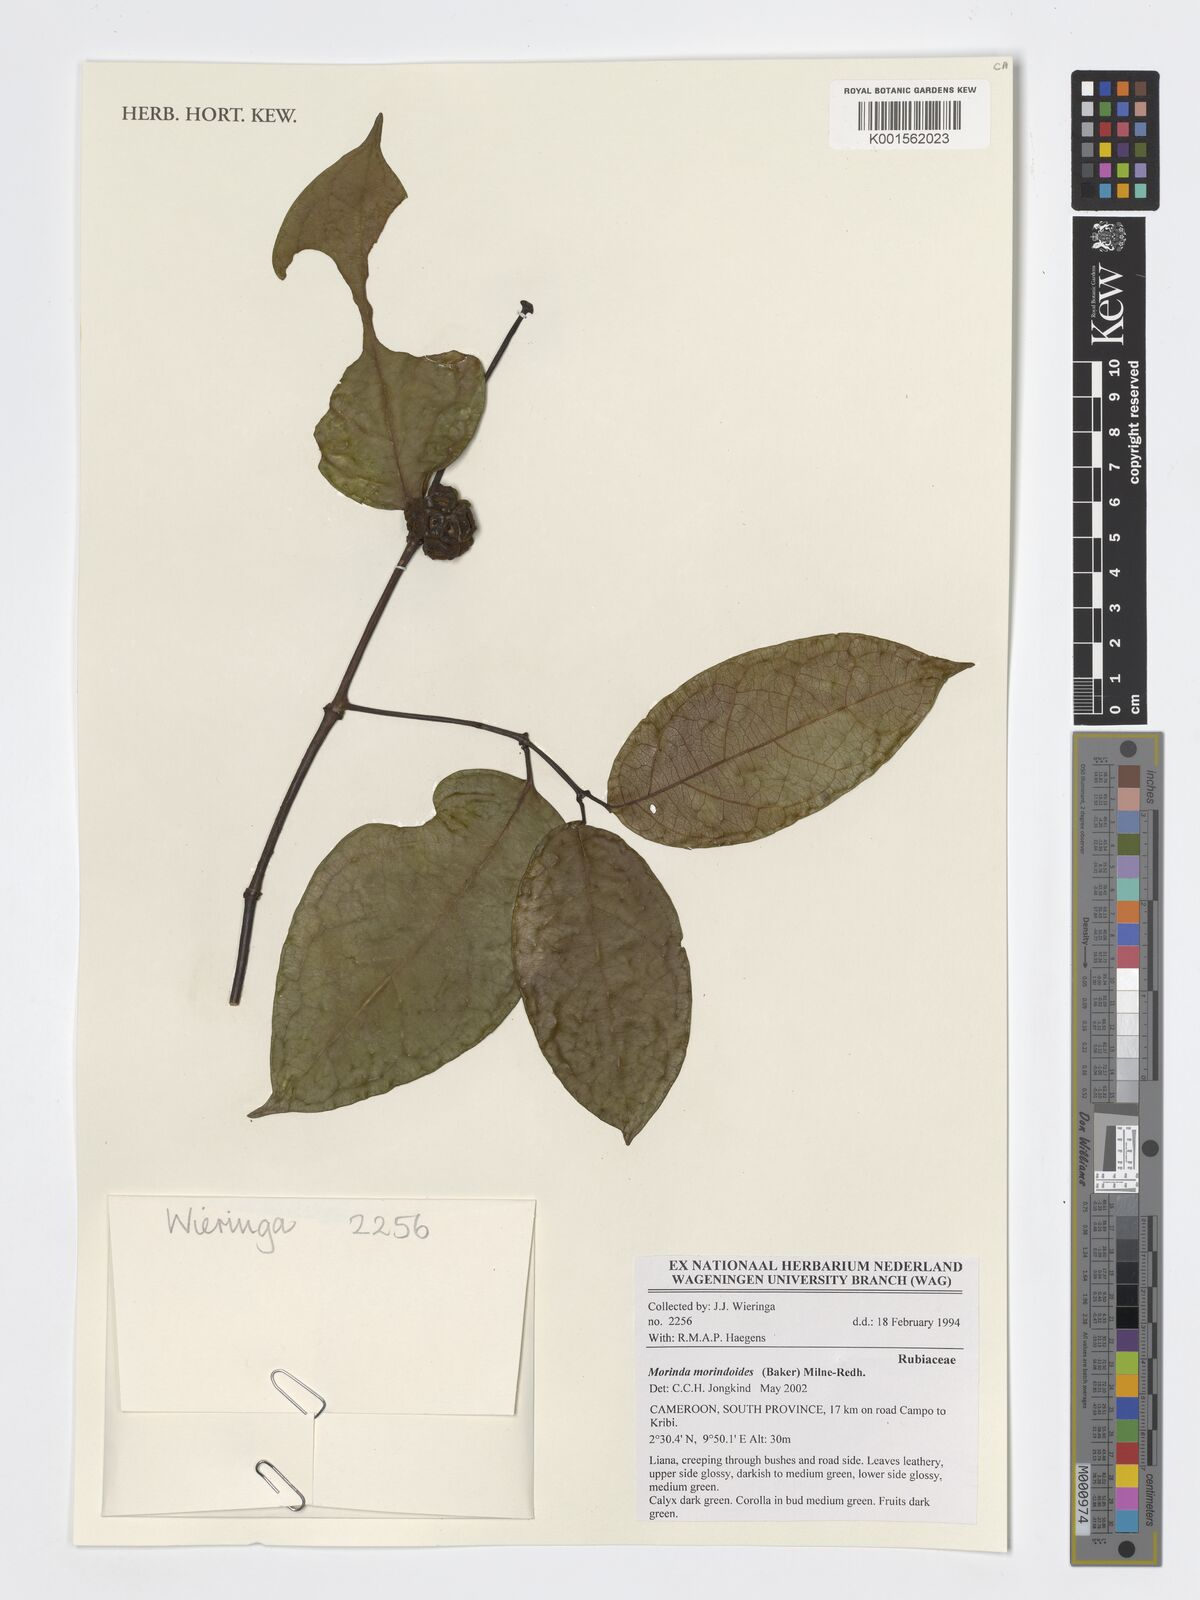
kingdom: Plantae
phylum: Tracheophyta
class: Magnoliopsida
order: Gentianales
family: Rubiaceae
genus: Morinda
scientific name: Morinda morindoides
